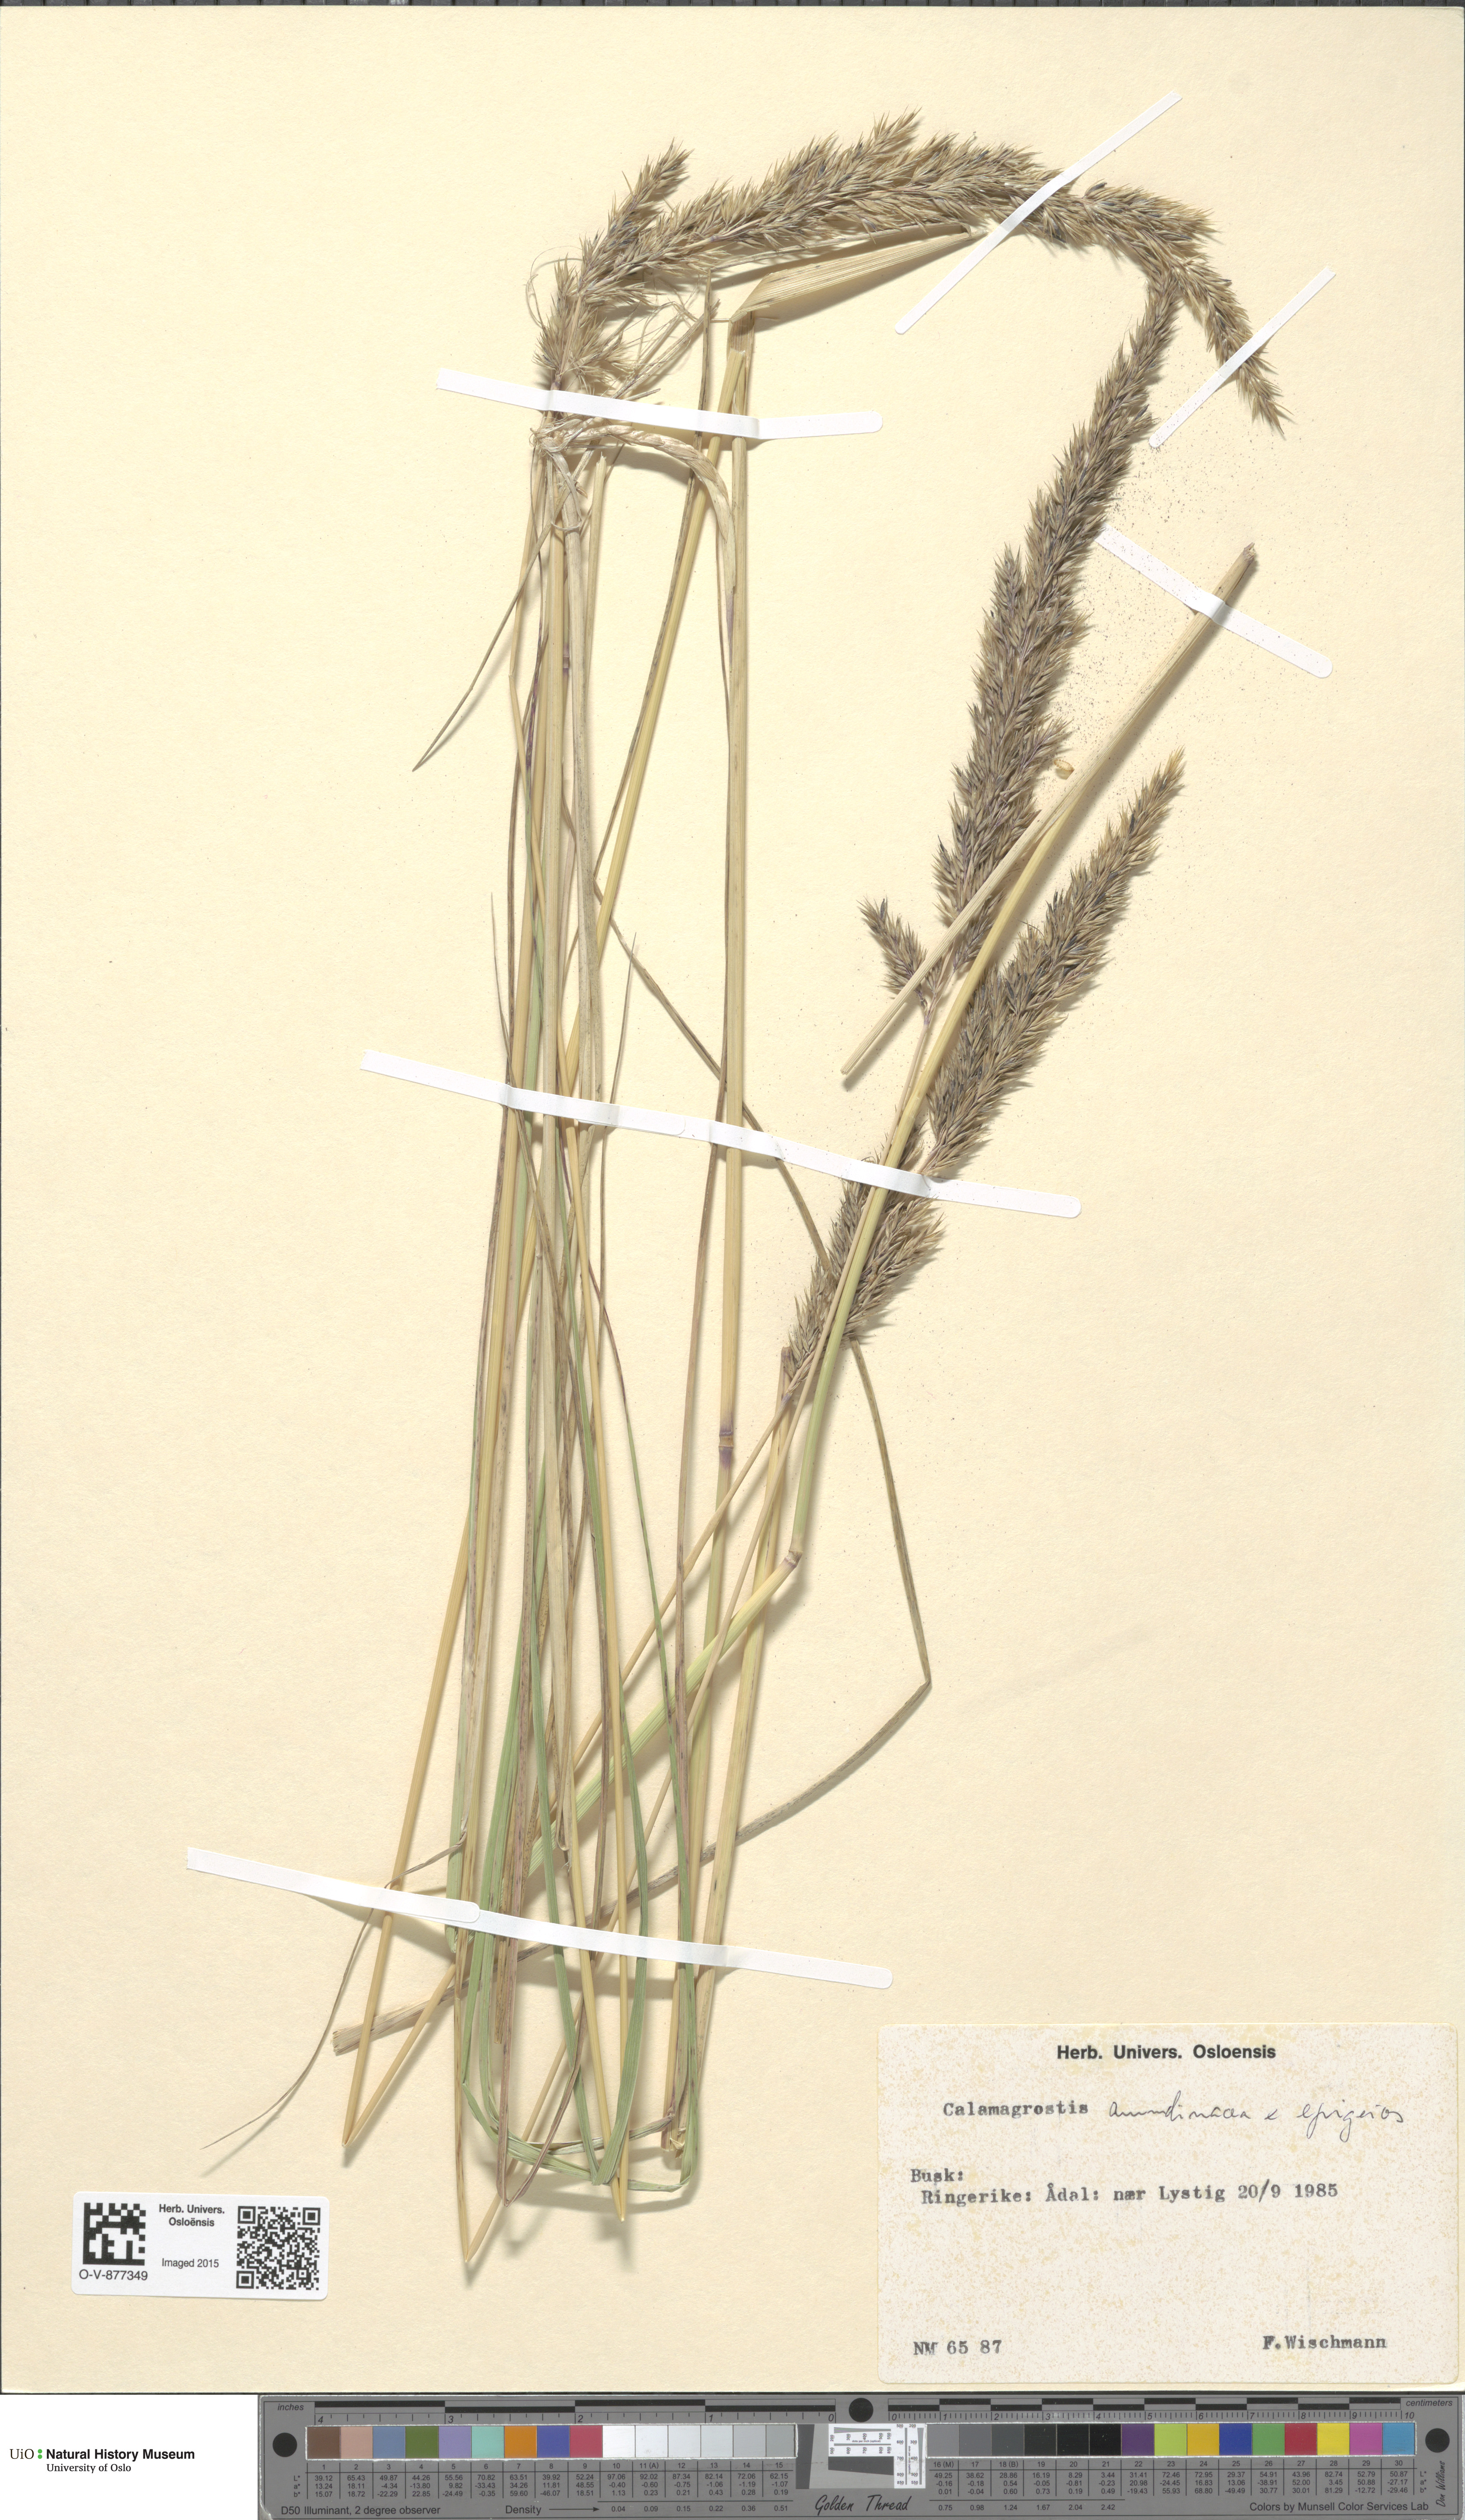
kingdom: Plantae
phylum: Tracheophyta
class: Liliopsida
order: Poales
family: Poaceae
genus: Calamagrostis
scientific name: Calamagrostis
